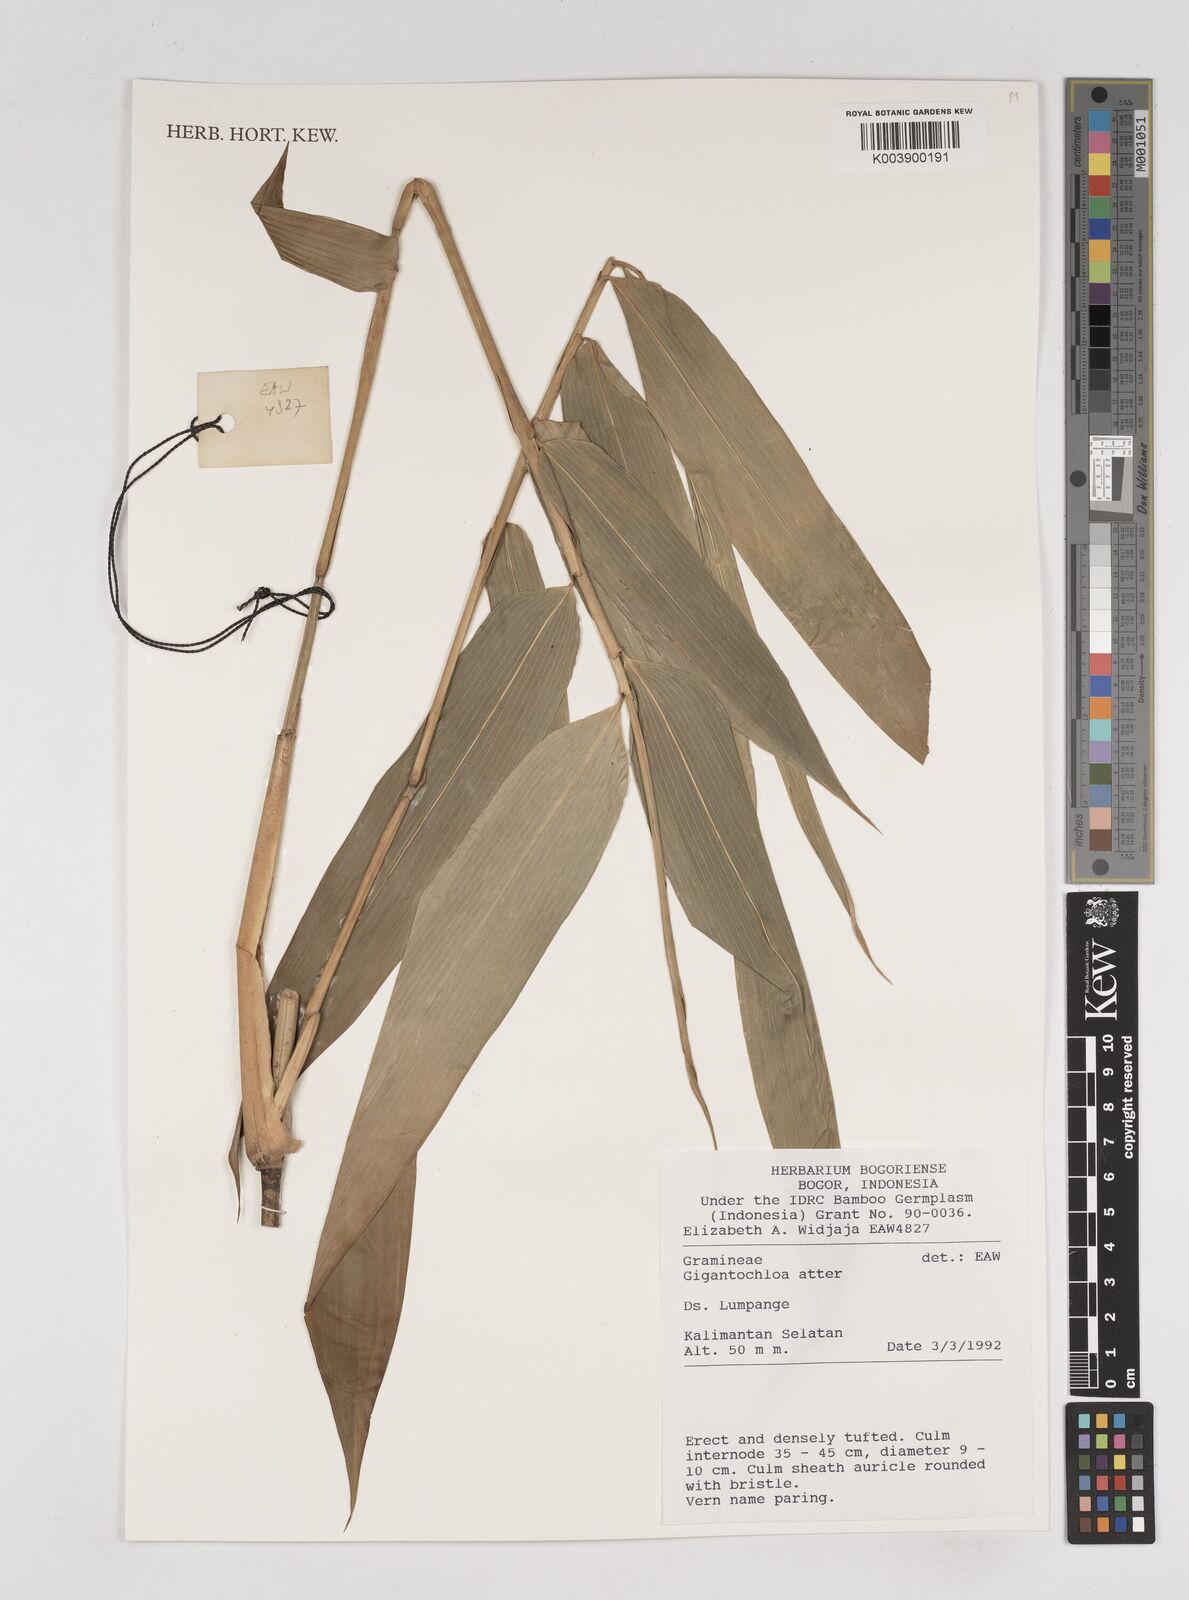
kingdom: Plantae
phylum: Tracheophyta
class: Liliopsida
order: Poales
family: Poaceae
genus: Gigantochloa
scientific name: Gigantochloa atter
